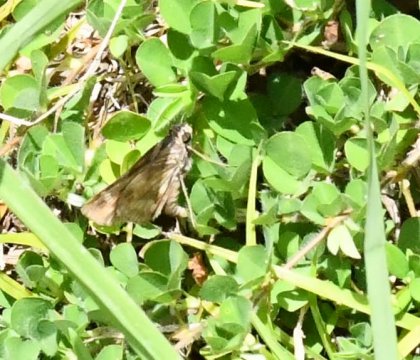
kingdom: Animalia
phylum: Arthropoda
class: Insecta
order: Lepidoptera
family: Hesperiidae
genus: Pompeius
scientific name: Pompeius pompeius
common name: Pompeius Skipper
